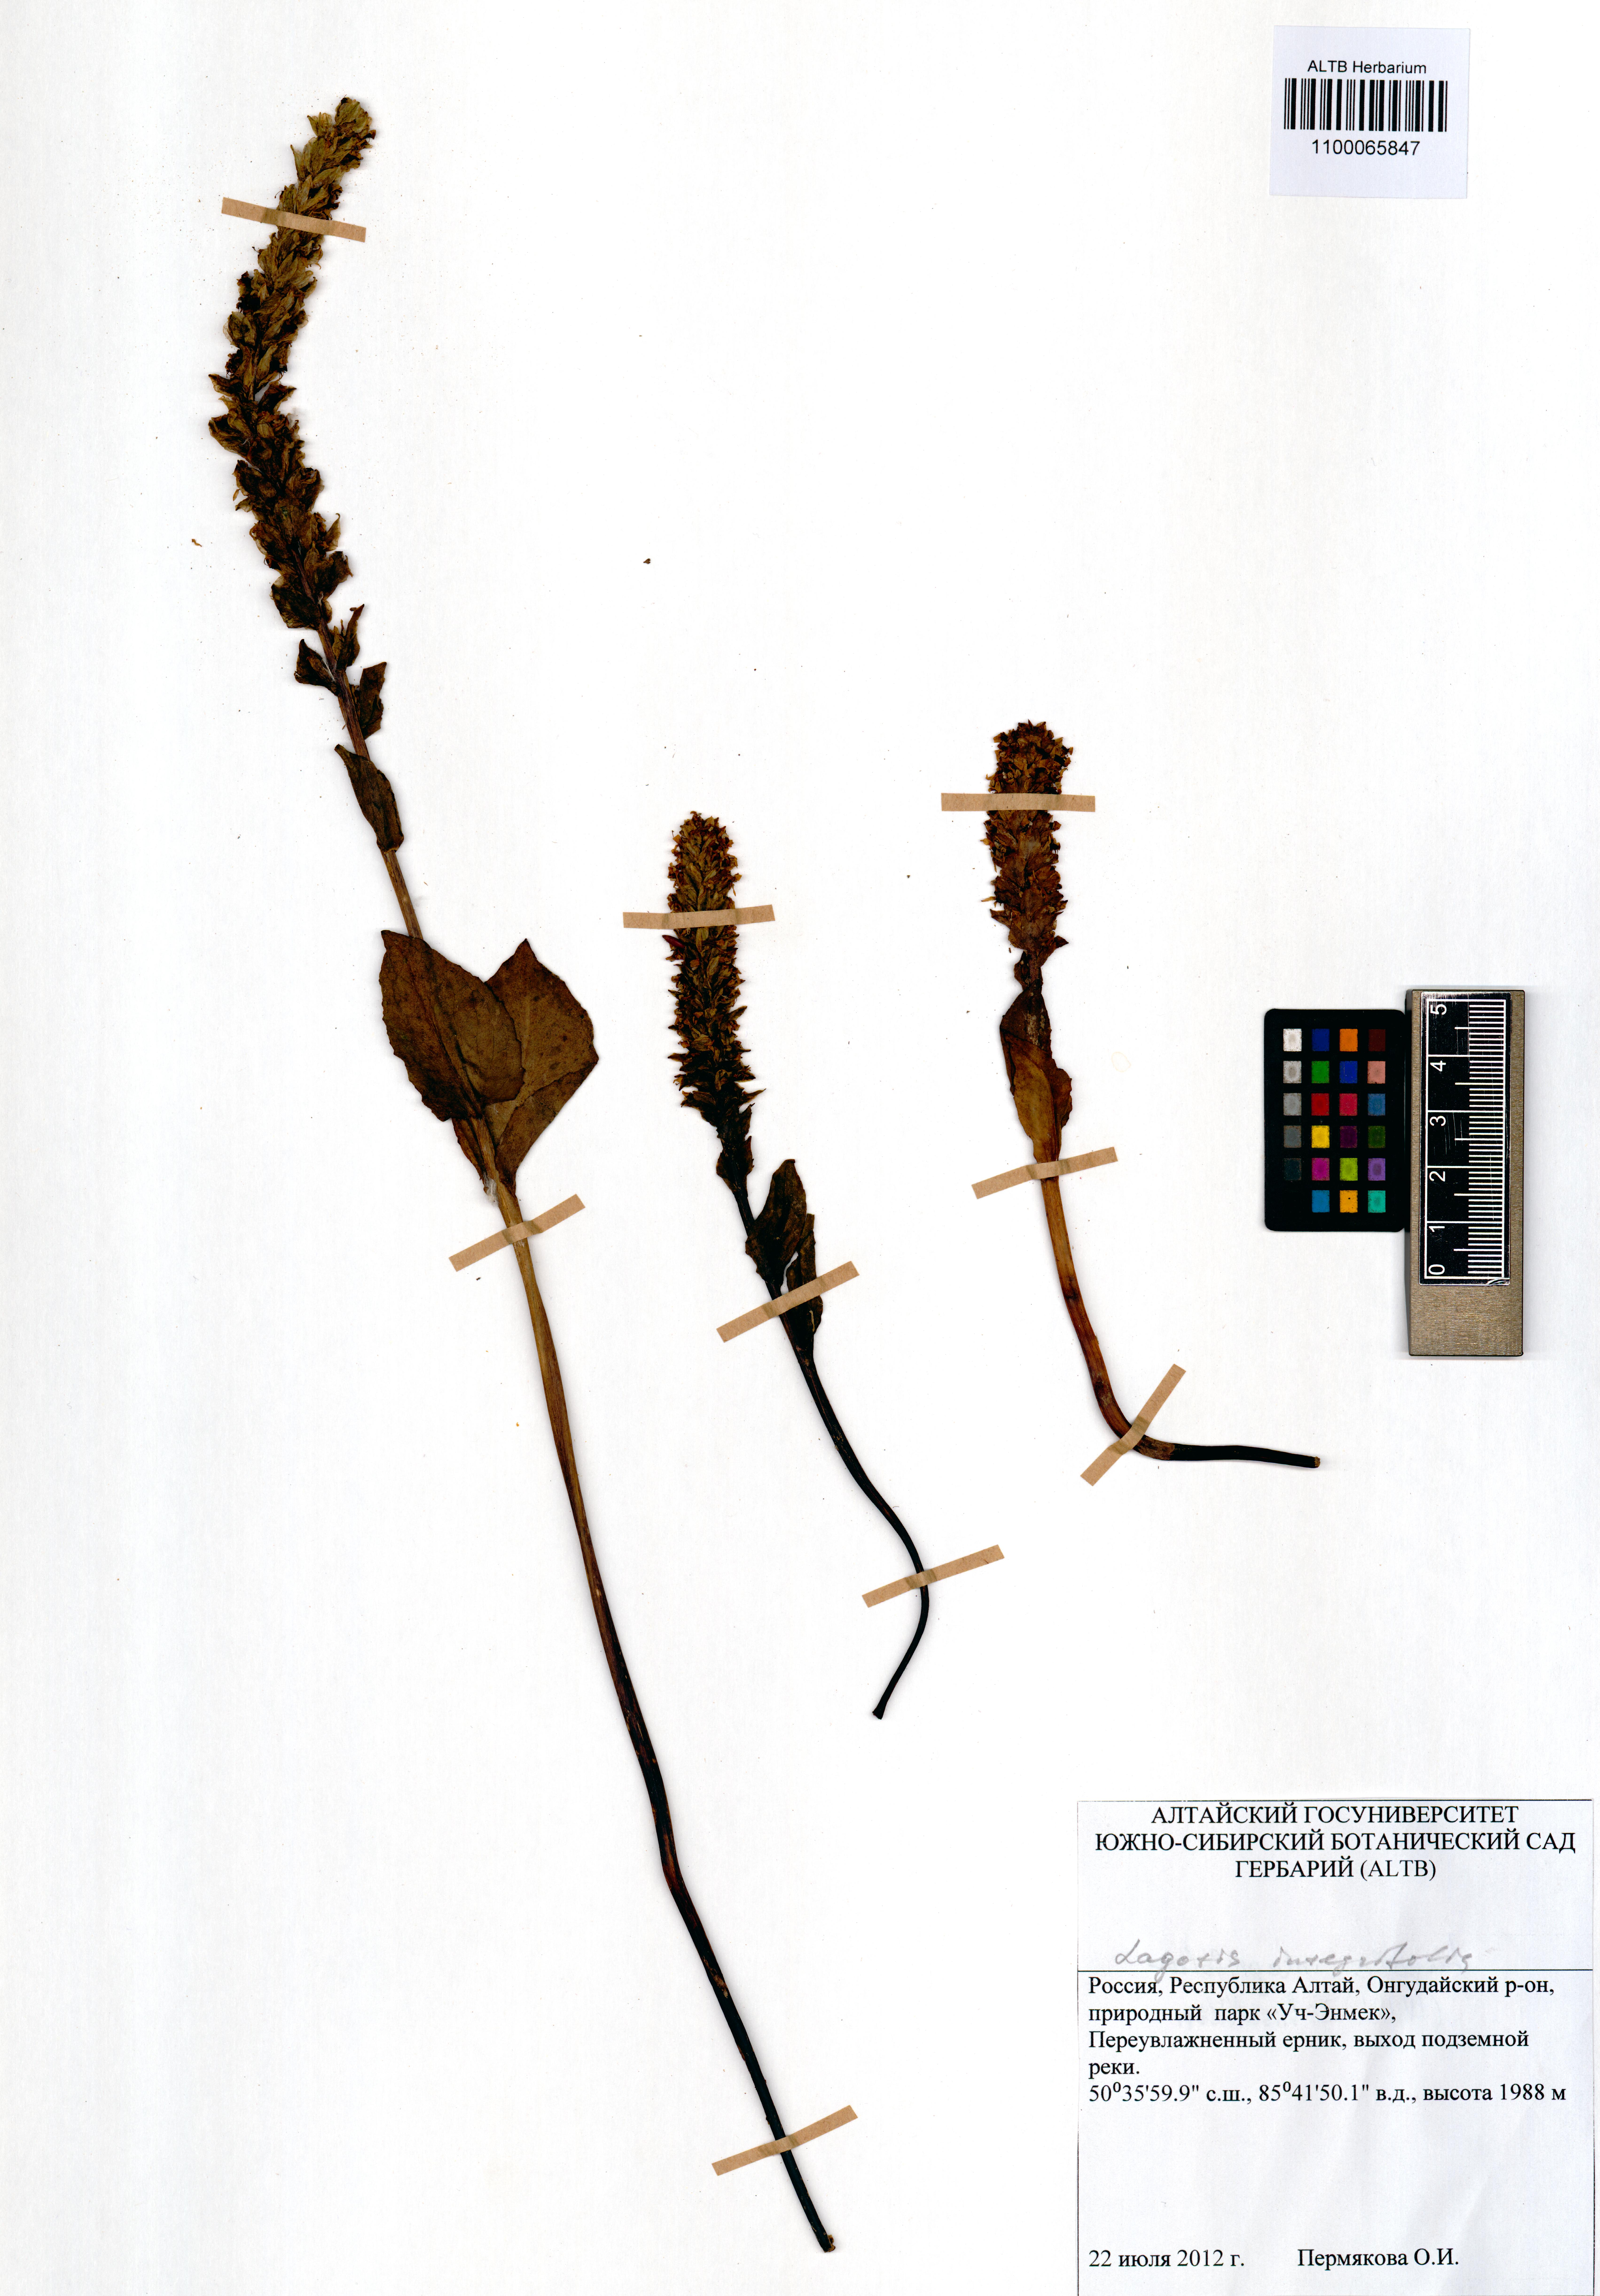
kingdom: Plantae
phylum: Tracheophyta
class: Magnoliopsida
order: Lamiales
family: Plantaginaceae
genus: Lagotis
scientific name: Lagotis integrifolia
